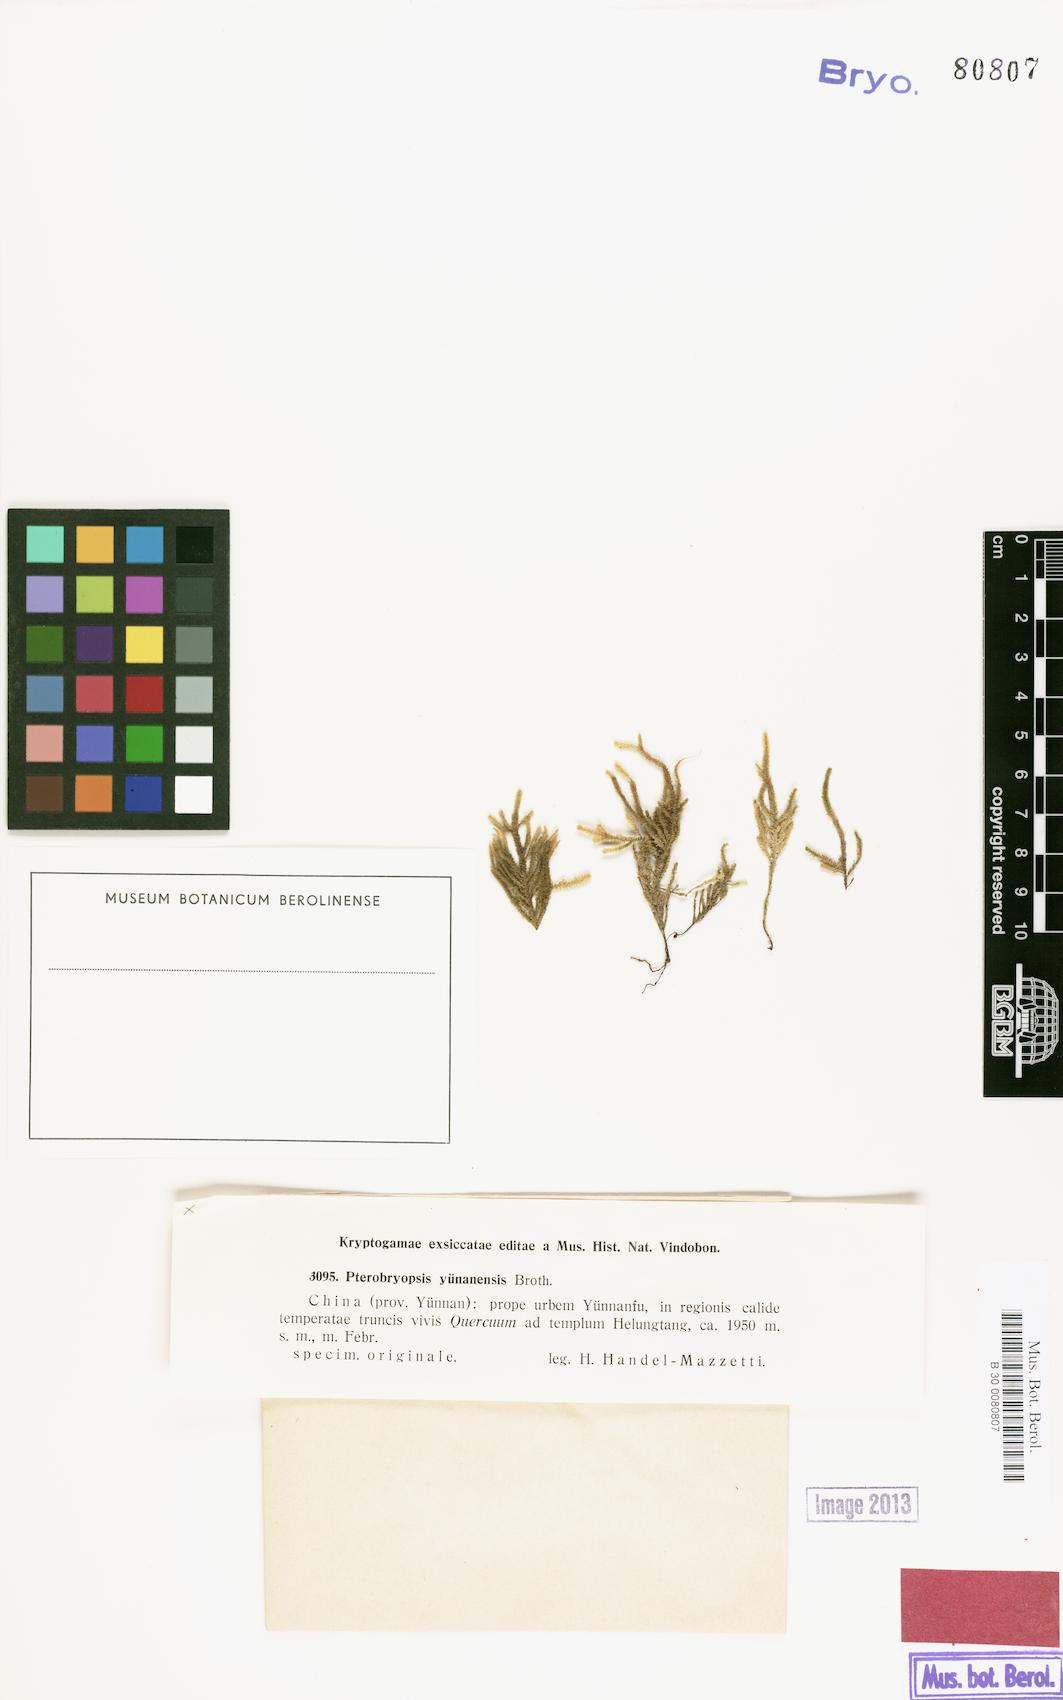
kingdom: Plantae
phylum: Bryophyta
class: Bryopsida
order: Hypnales
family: Pterobryaceae
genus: Pterobryopsis
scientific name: Pterobryopsis
